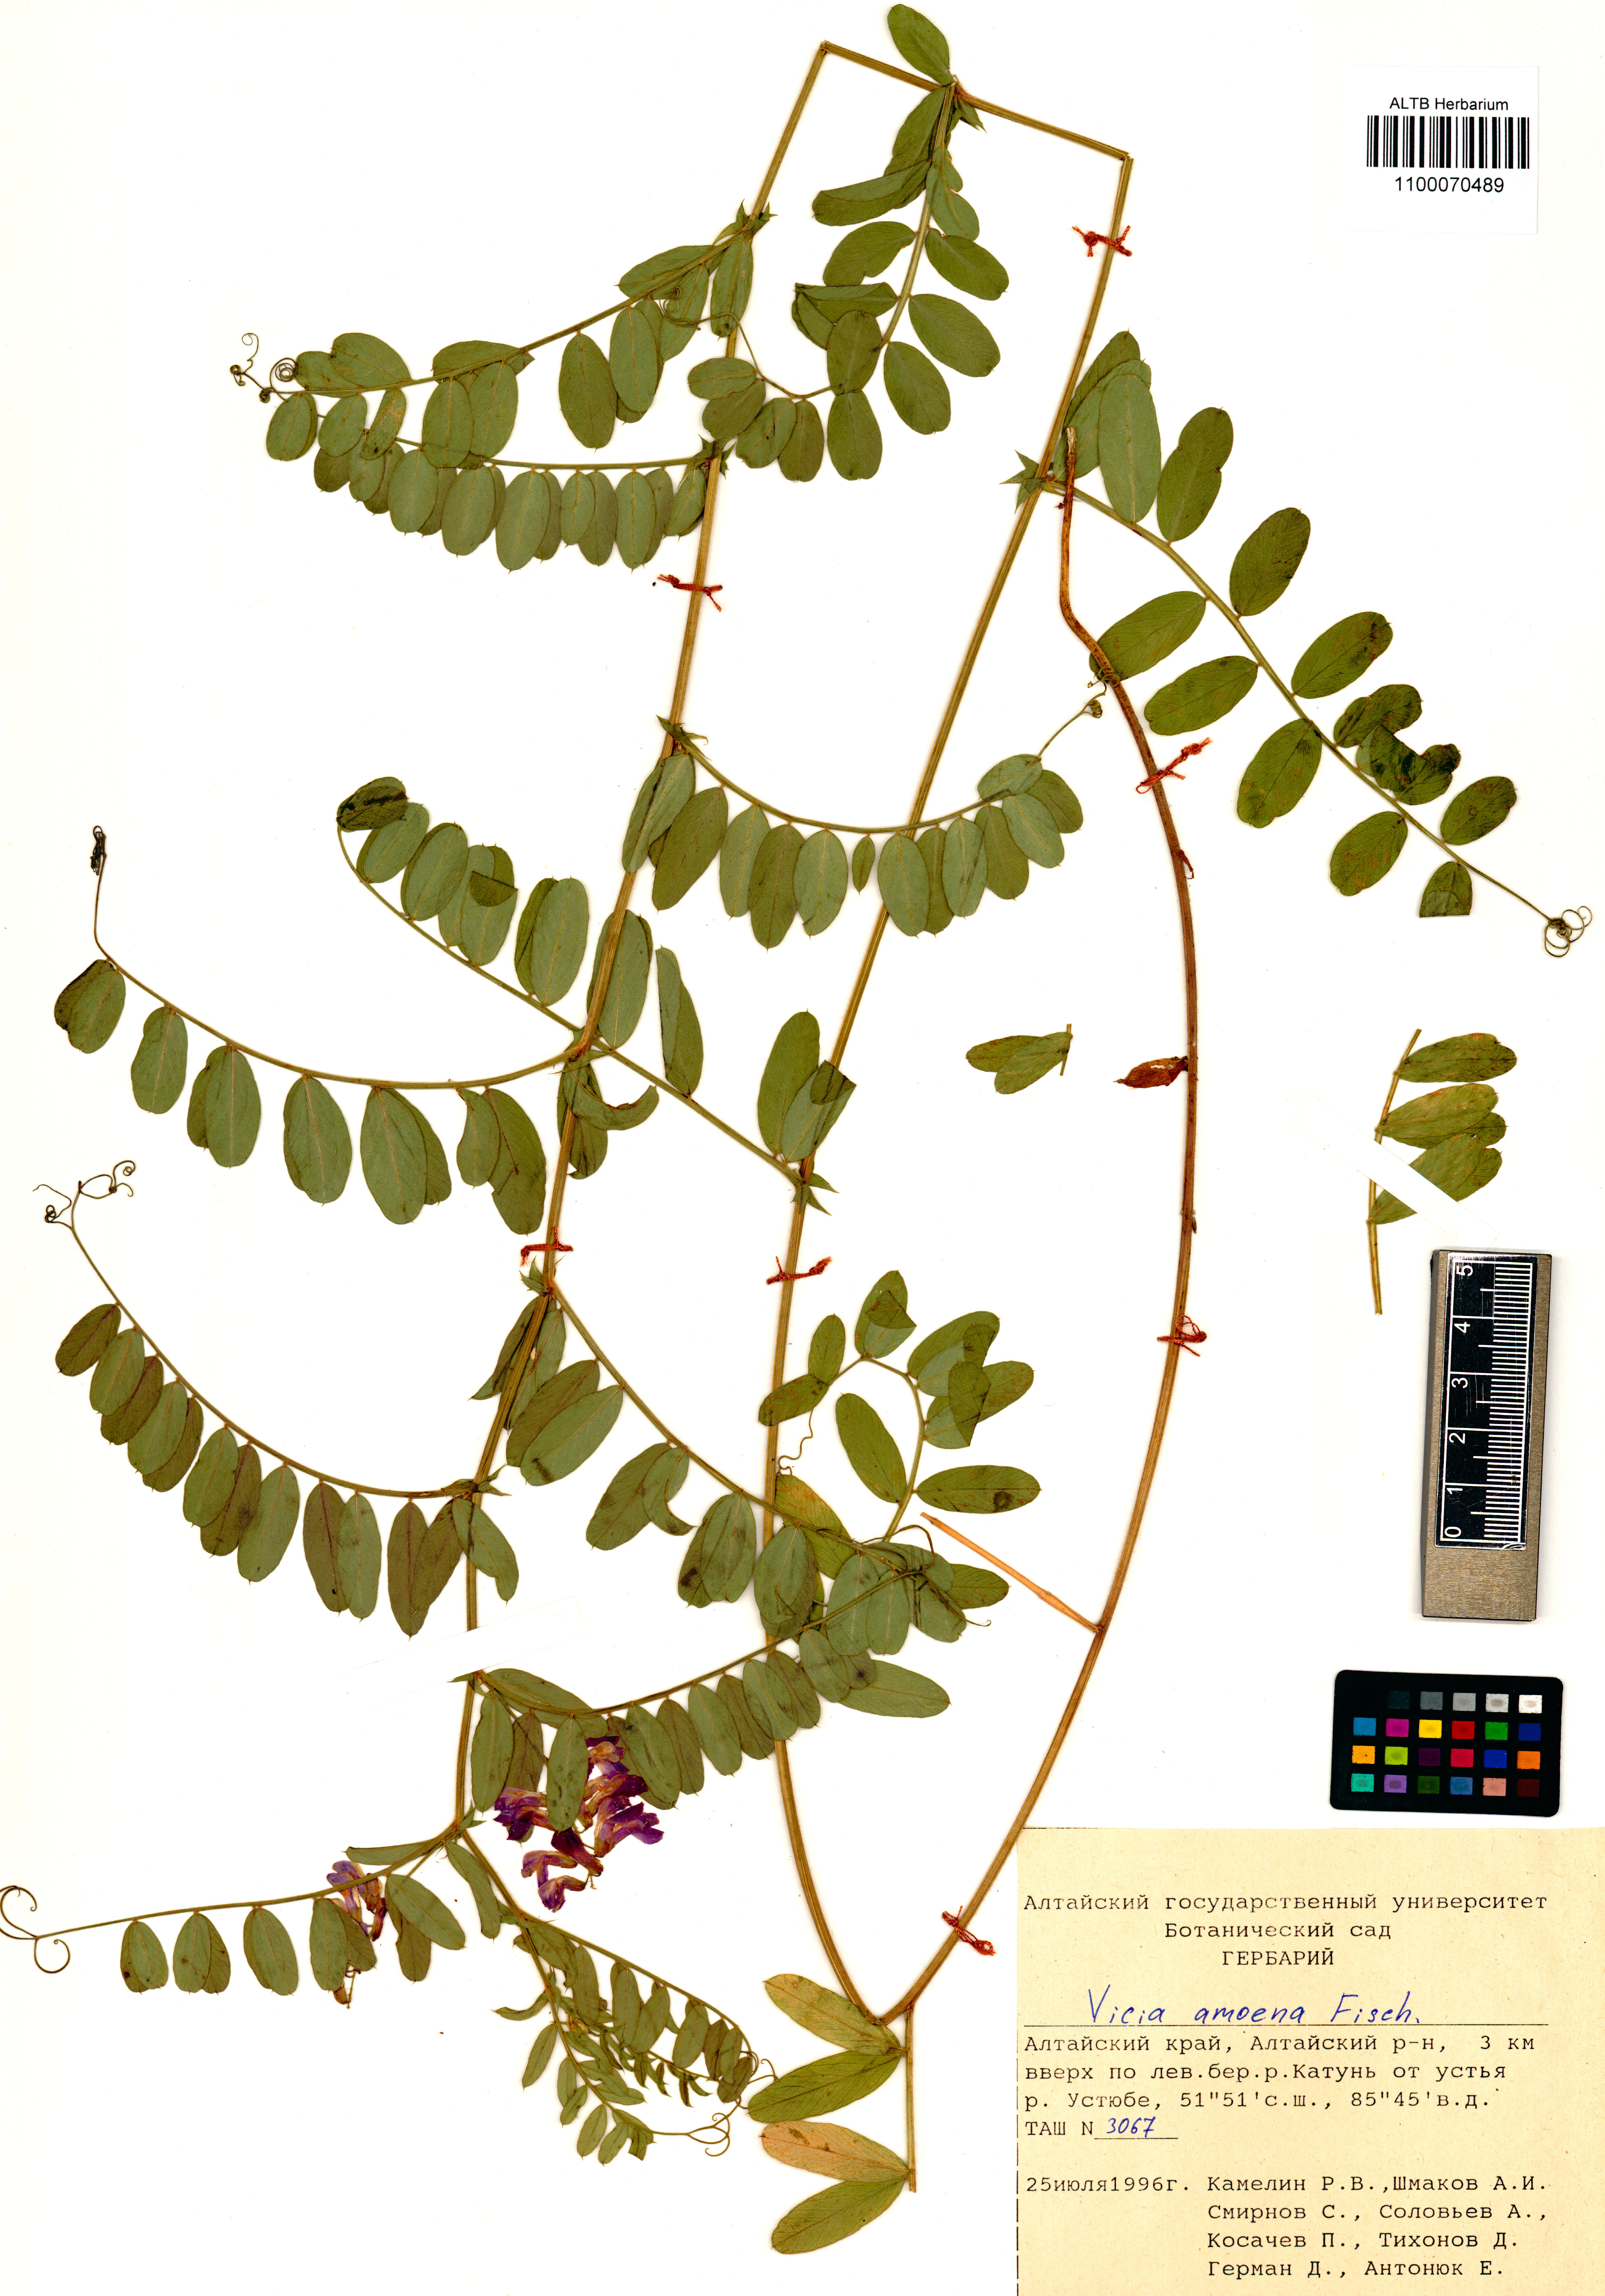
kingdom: Plantae
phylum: Tracheophyta
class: Magnoliopsida
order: Fabales
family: Fabaceae
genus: Vicia
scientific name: Vicia amoena
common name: Cheder ebs
